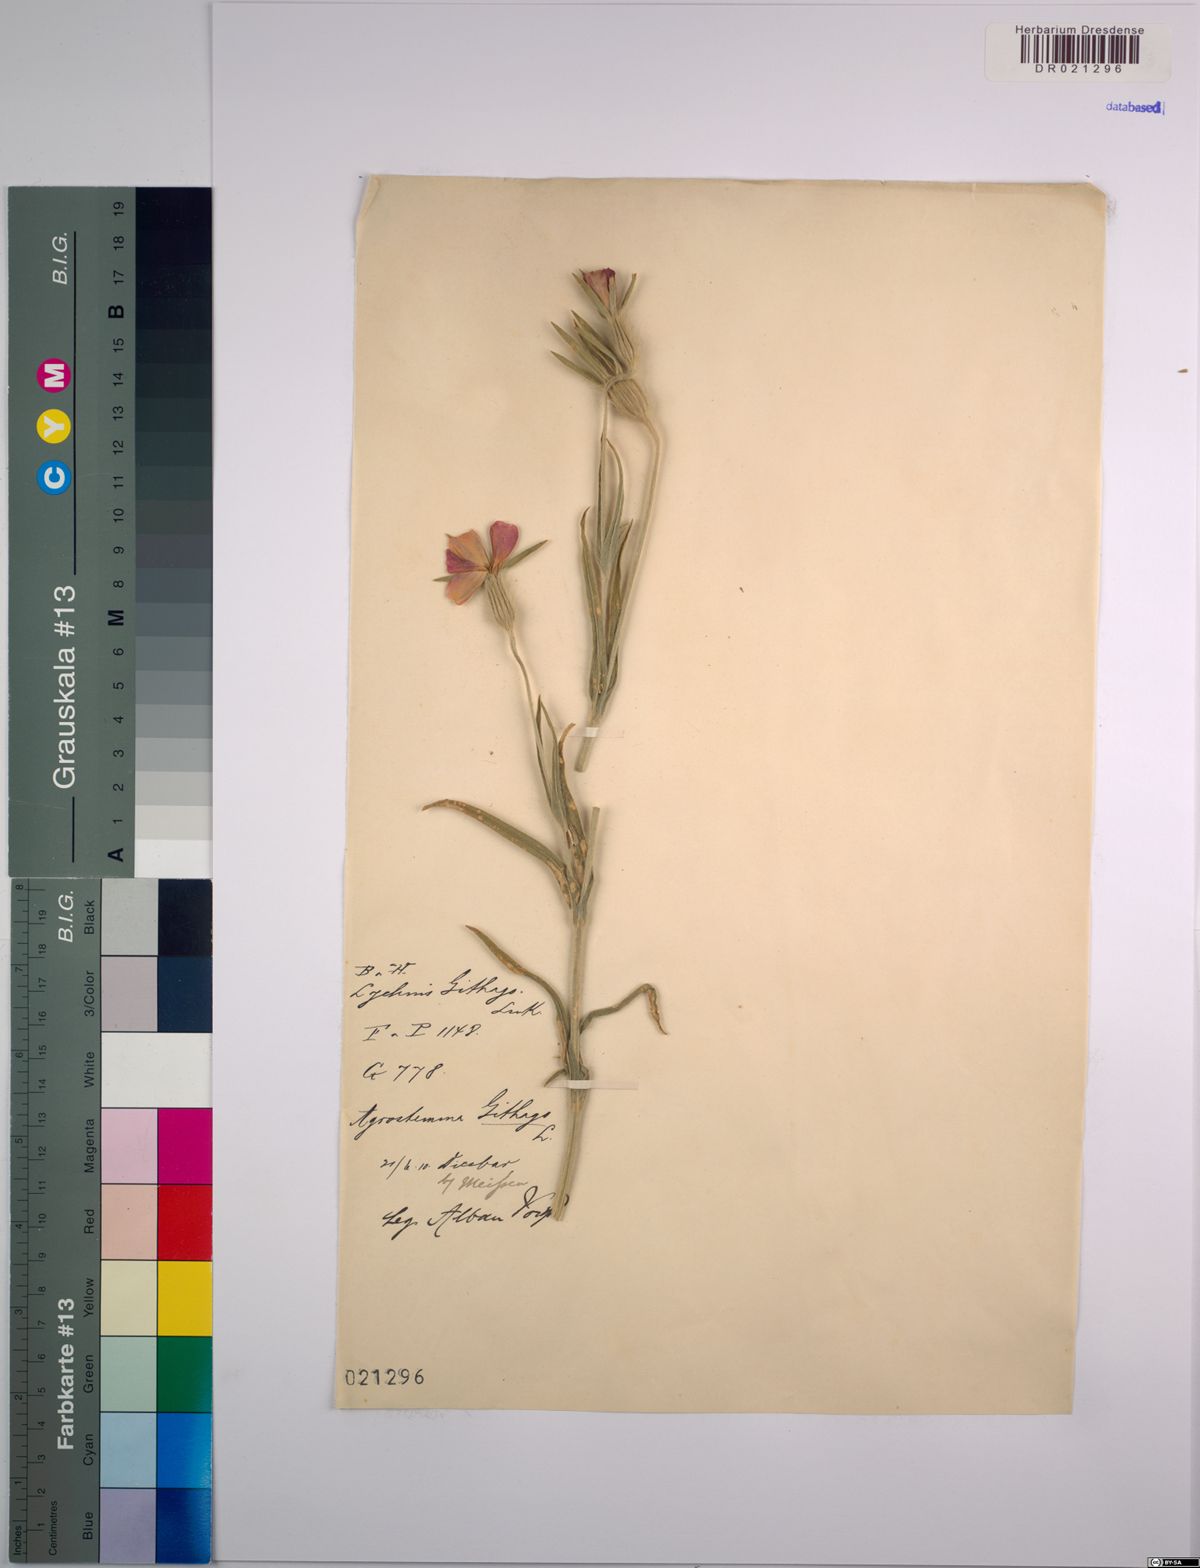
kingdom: Plantae
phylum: Tracheophyta
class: Magnoliopsida
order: Caryophyllales
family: Caryophyllaceae
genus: Agrostemma
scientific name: Agrostemma githago
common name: Common corncockle
